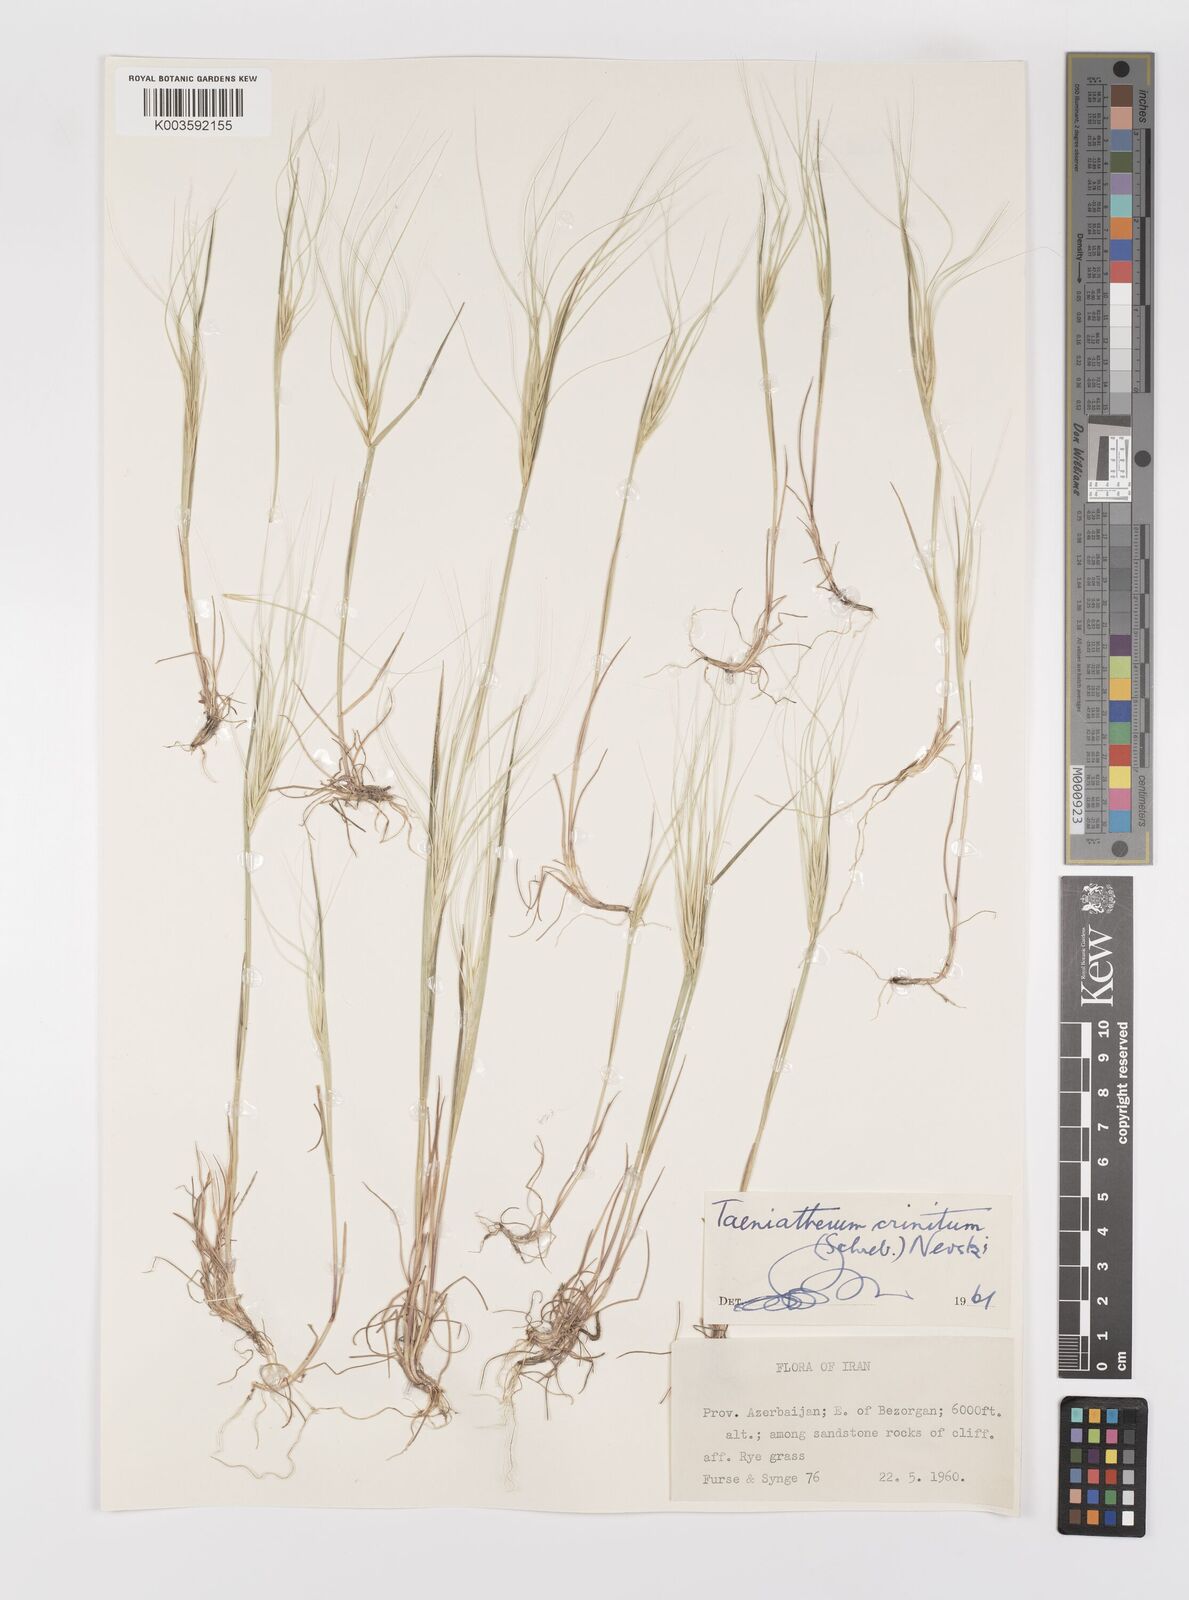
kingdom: Plantae
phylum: Tracheophyta
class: Liliopsida
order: Poales
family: Poaceae
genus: Taeniatherum
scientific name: Taeniatherum caput-medusae
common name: Medusahead
